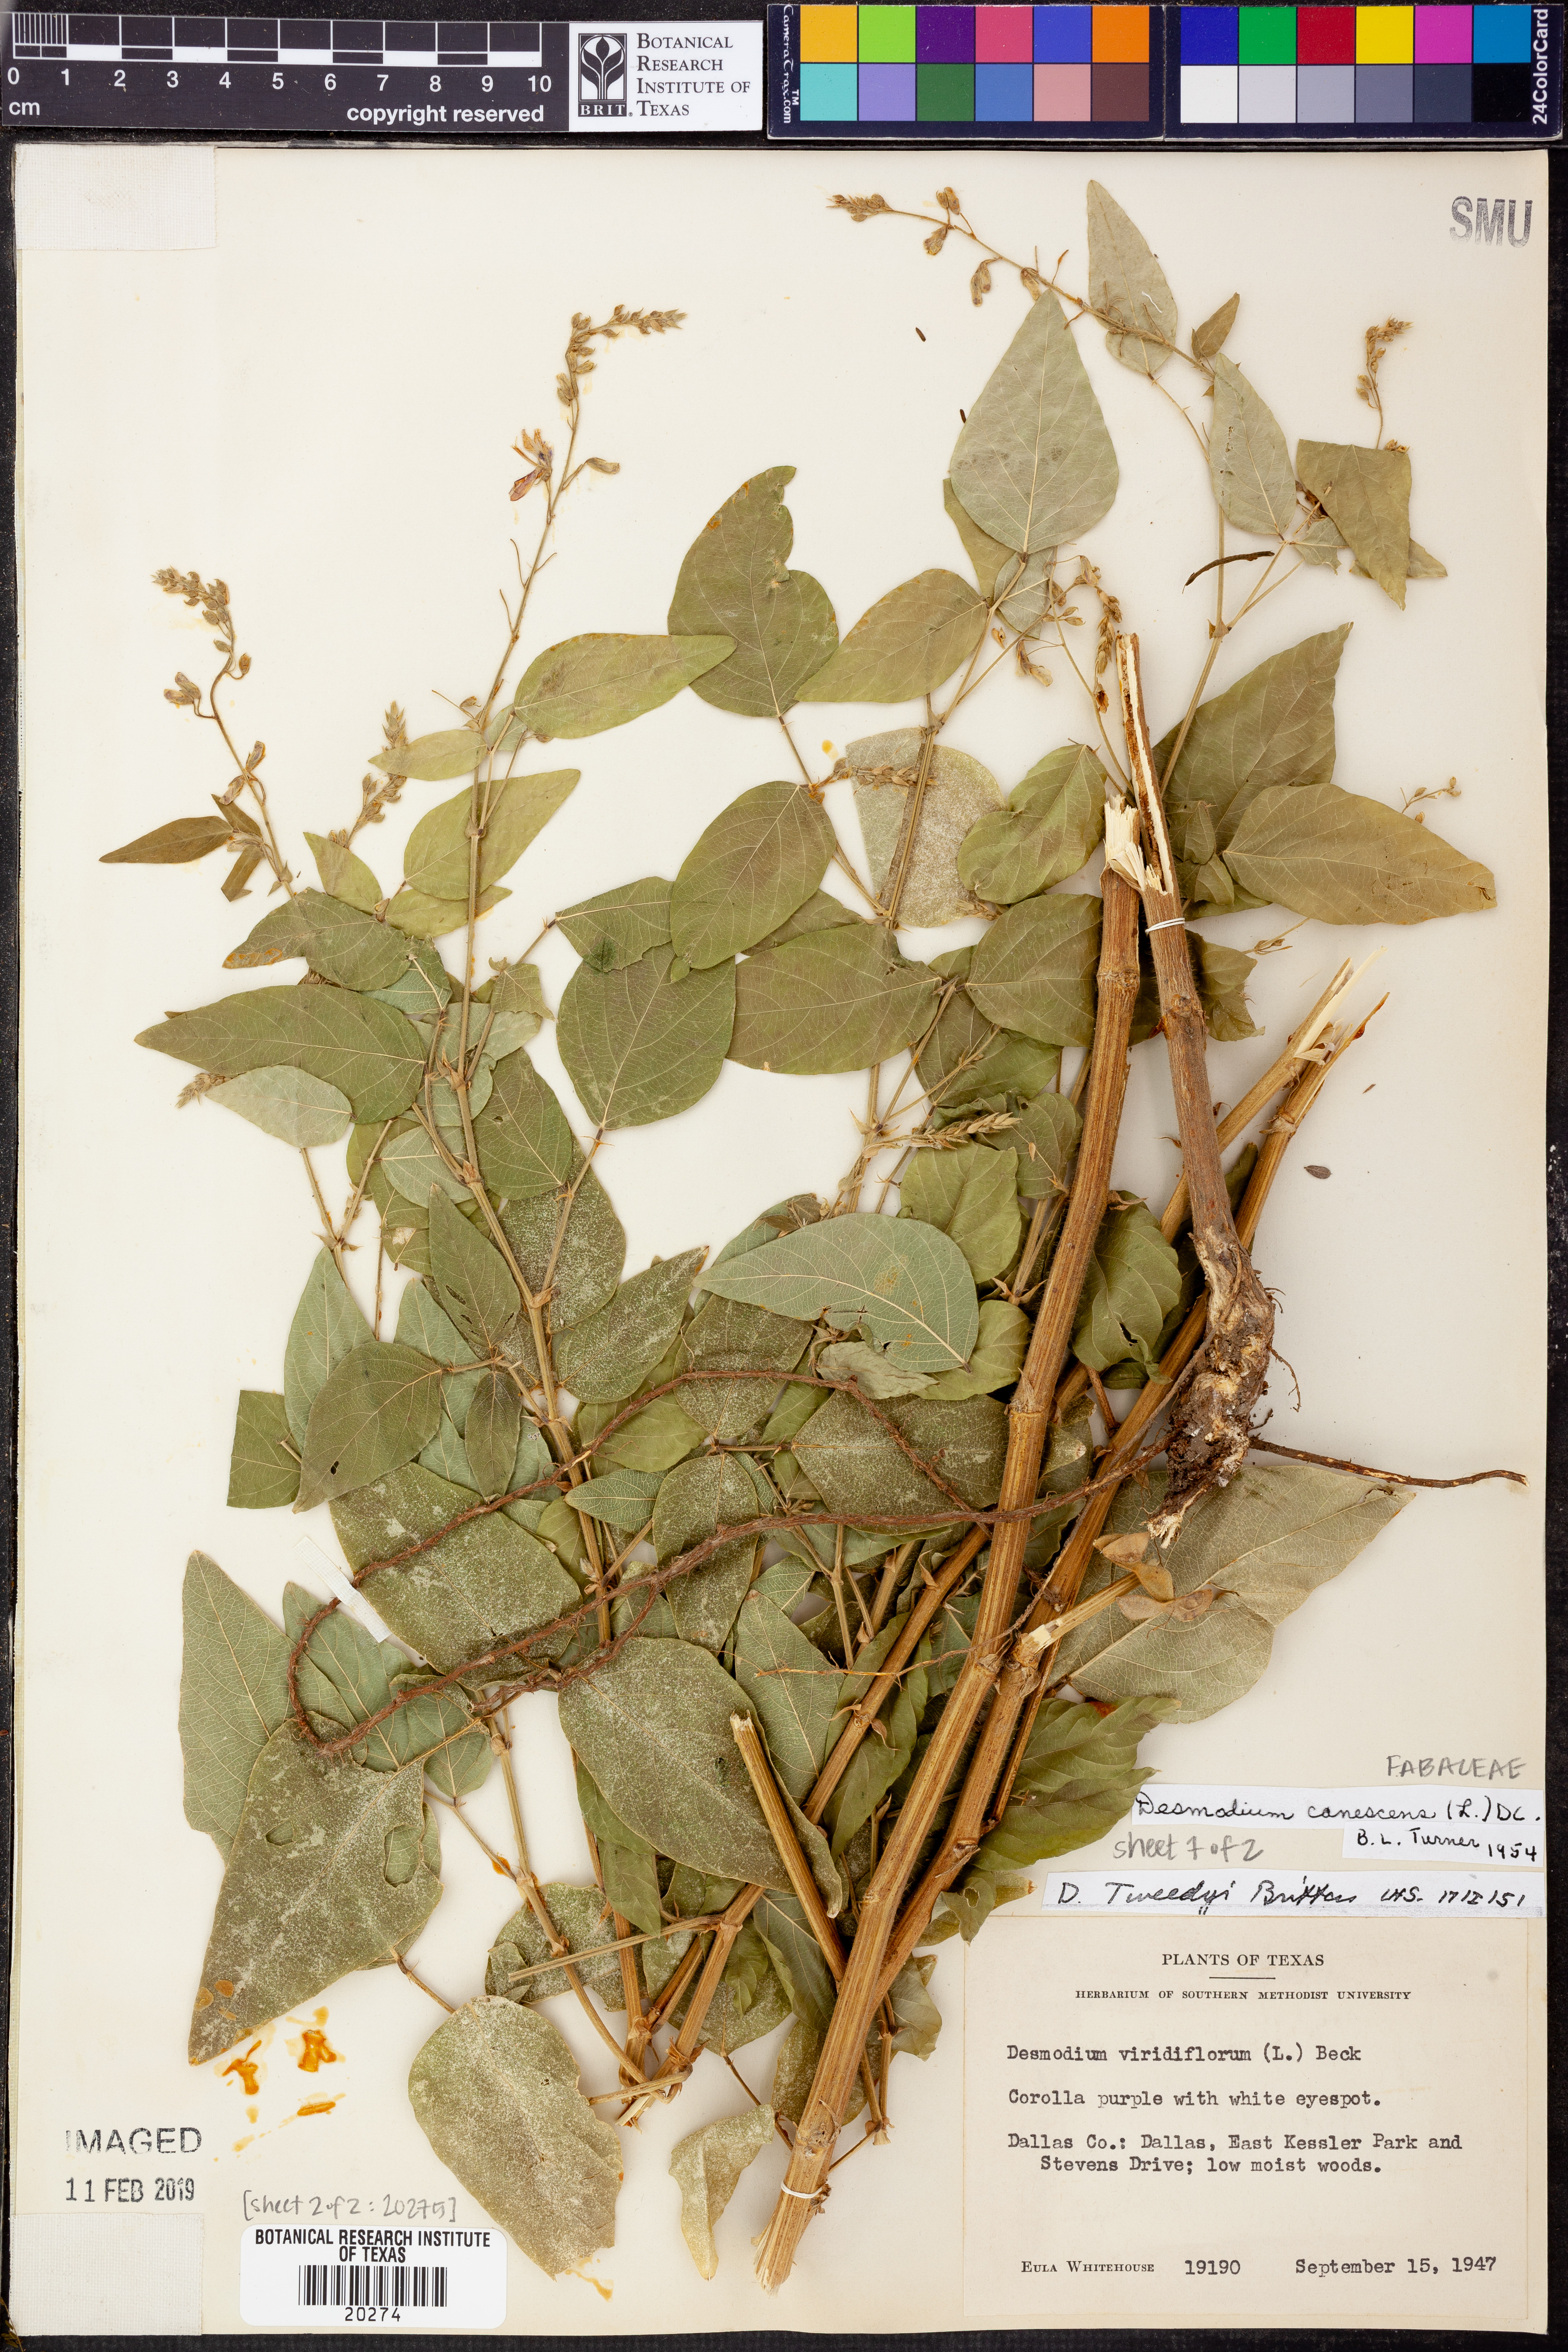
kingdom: Plantae
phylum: Tracheophyta
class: Magnoliopsida
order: Fabales
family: Fabaceae
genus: Desmodium
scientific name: Desmodium canadense
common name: Canada tick-trefoil
